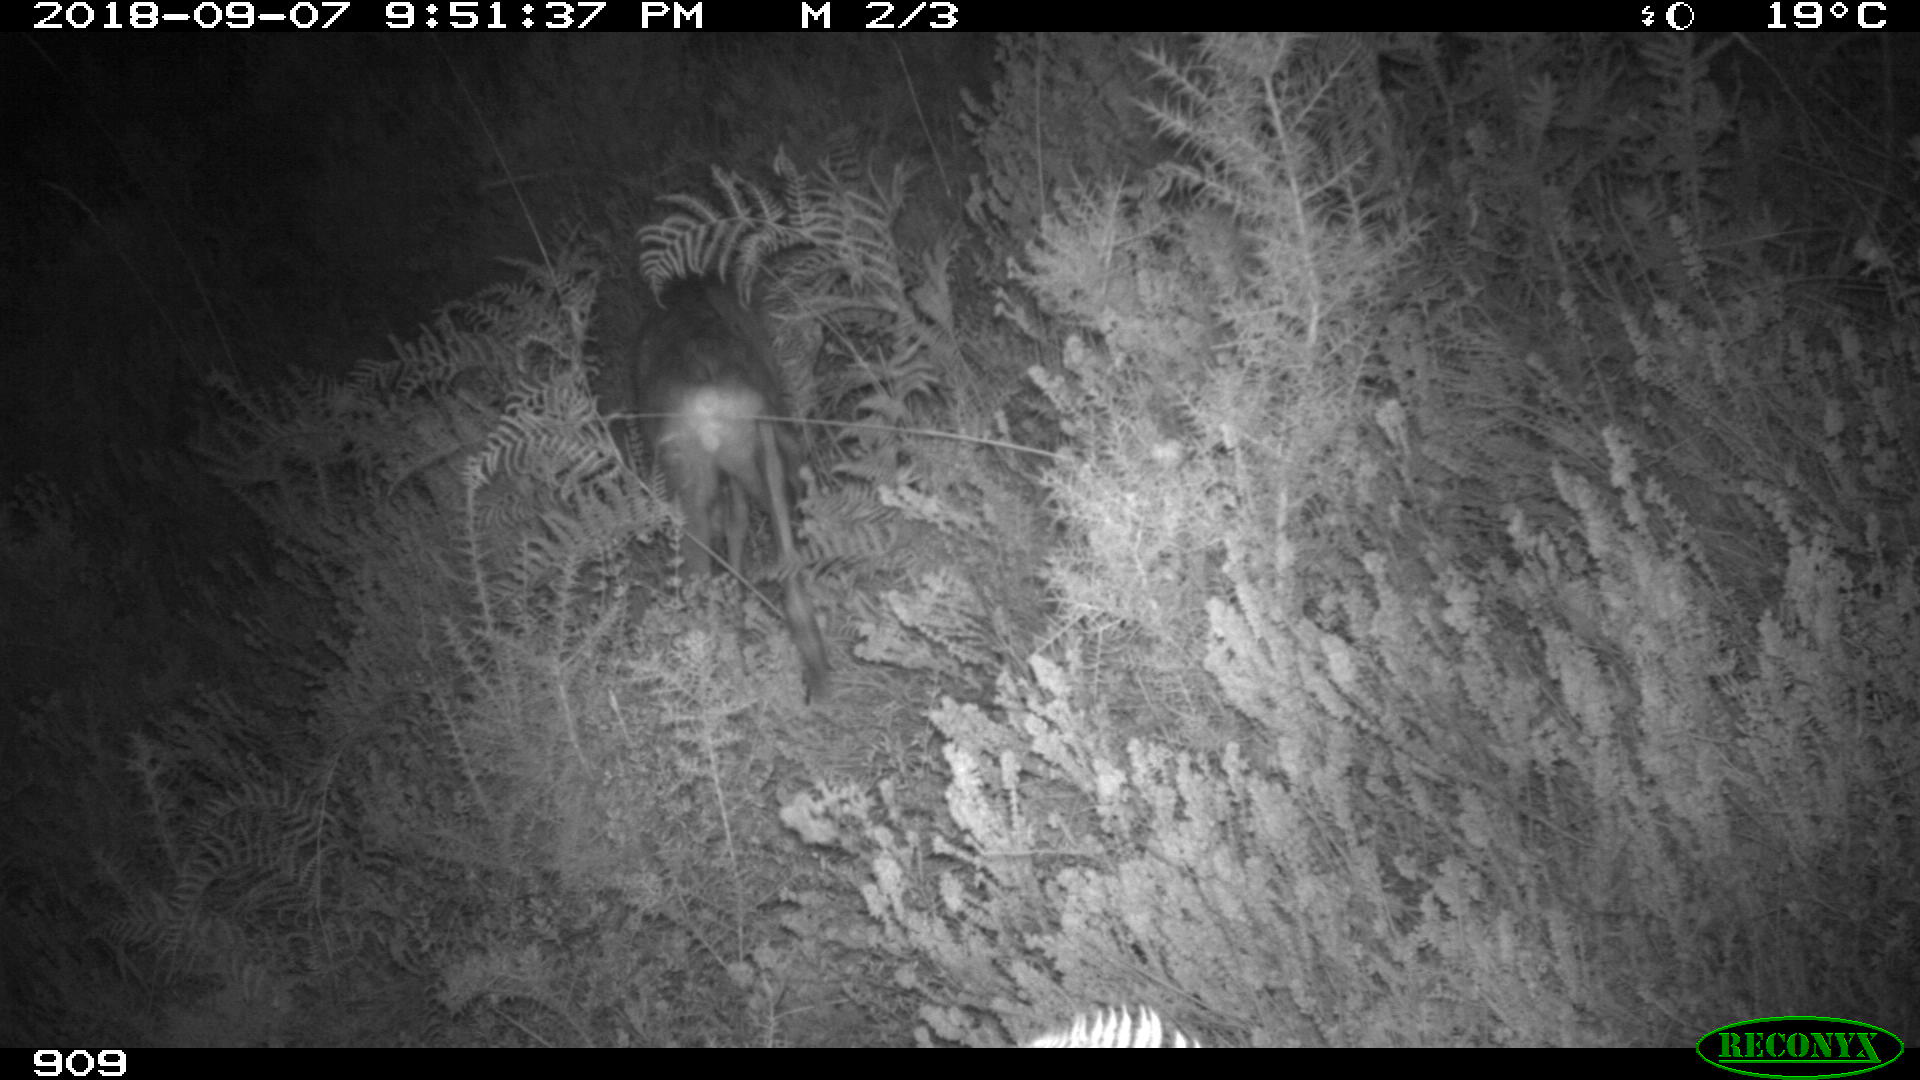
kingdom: Animalia
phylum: Chordata
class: Mammalia
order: Artiodactyla
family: Cervidae
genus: Capreolus
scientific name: Capreolus capreolus
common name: Western roe deer
